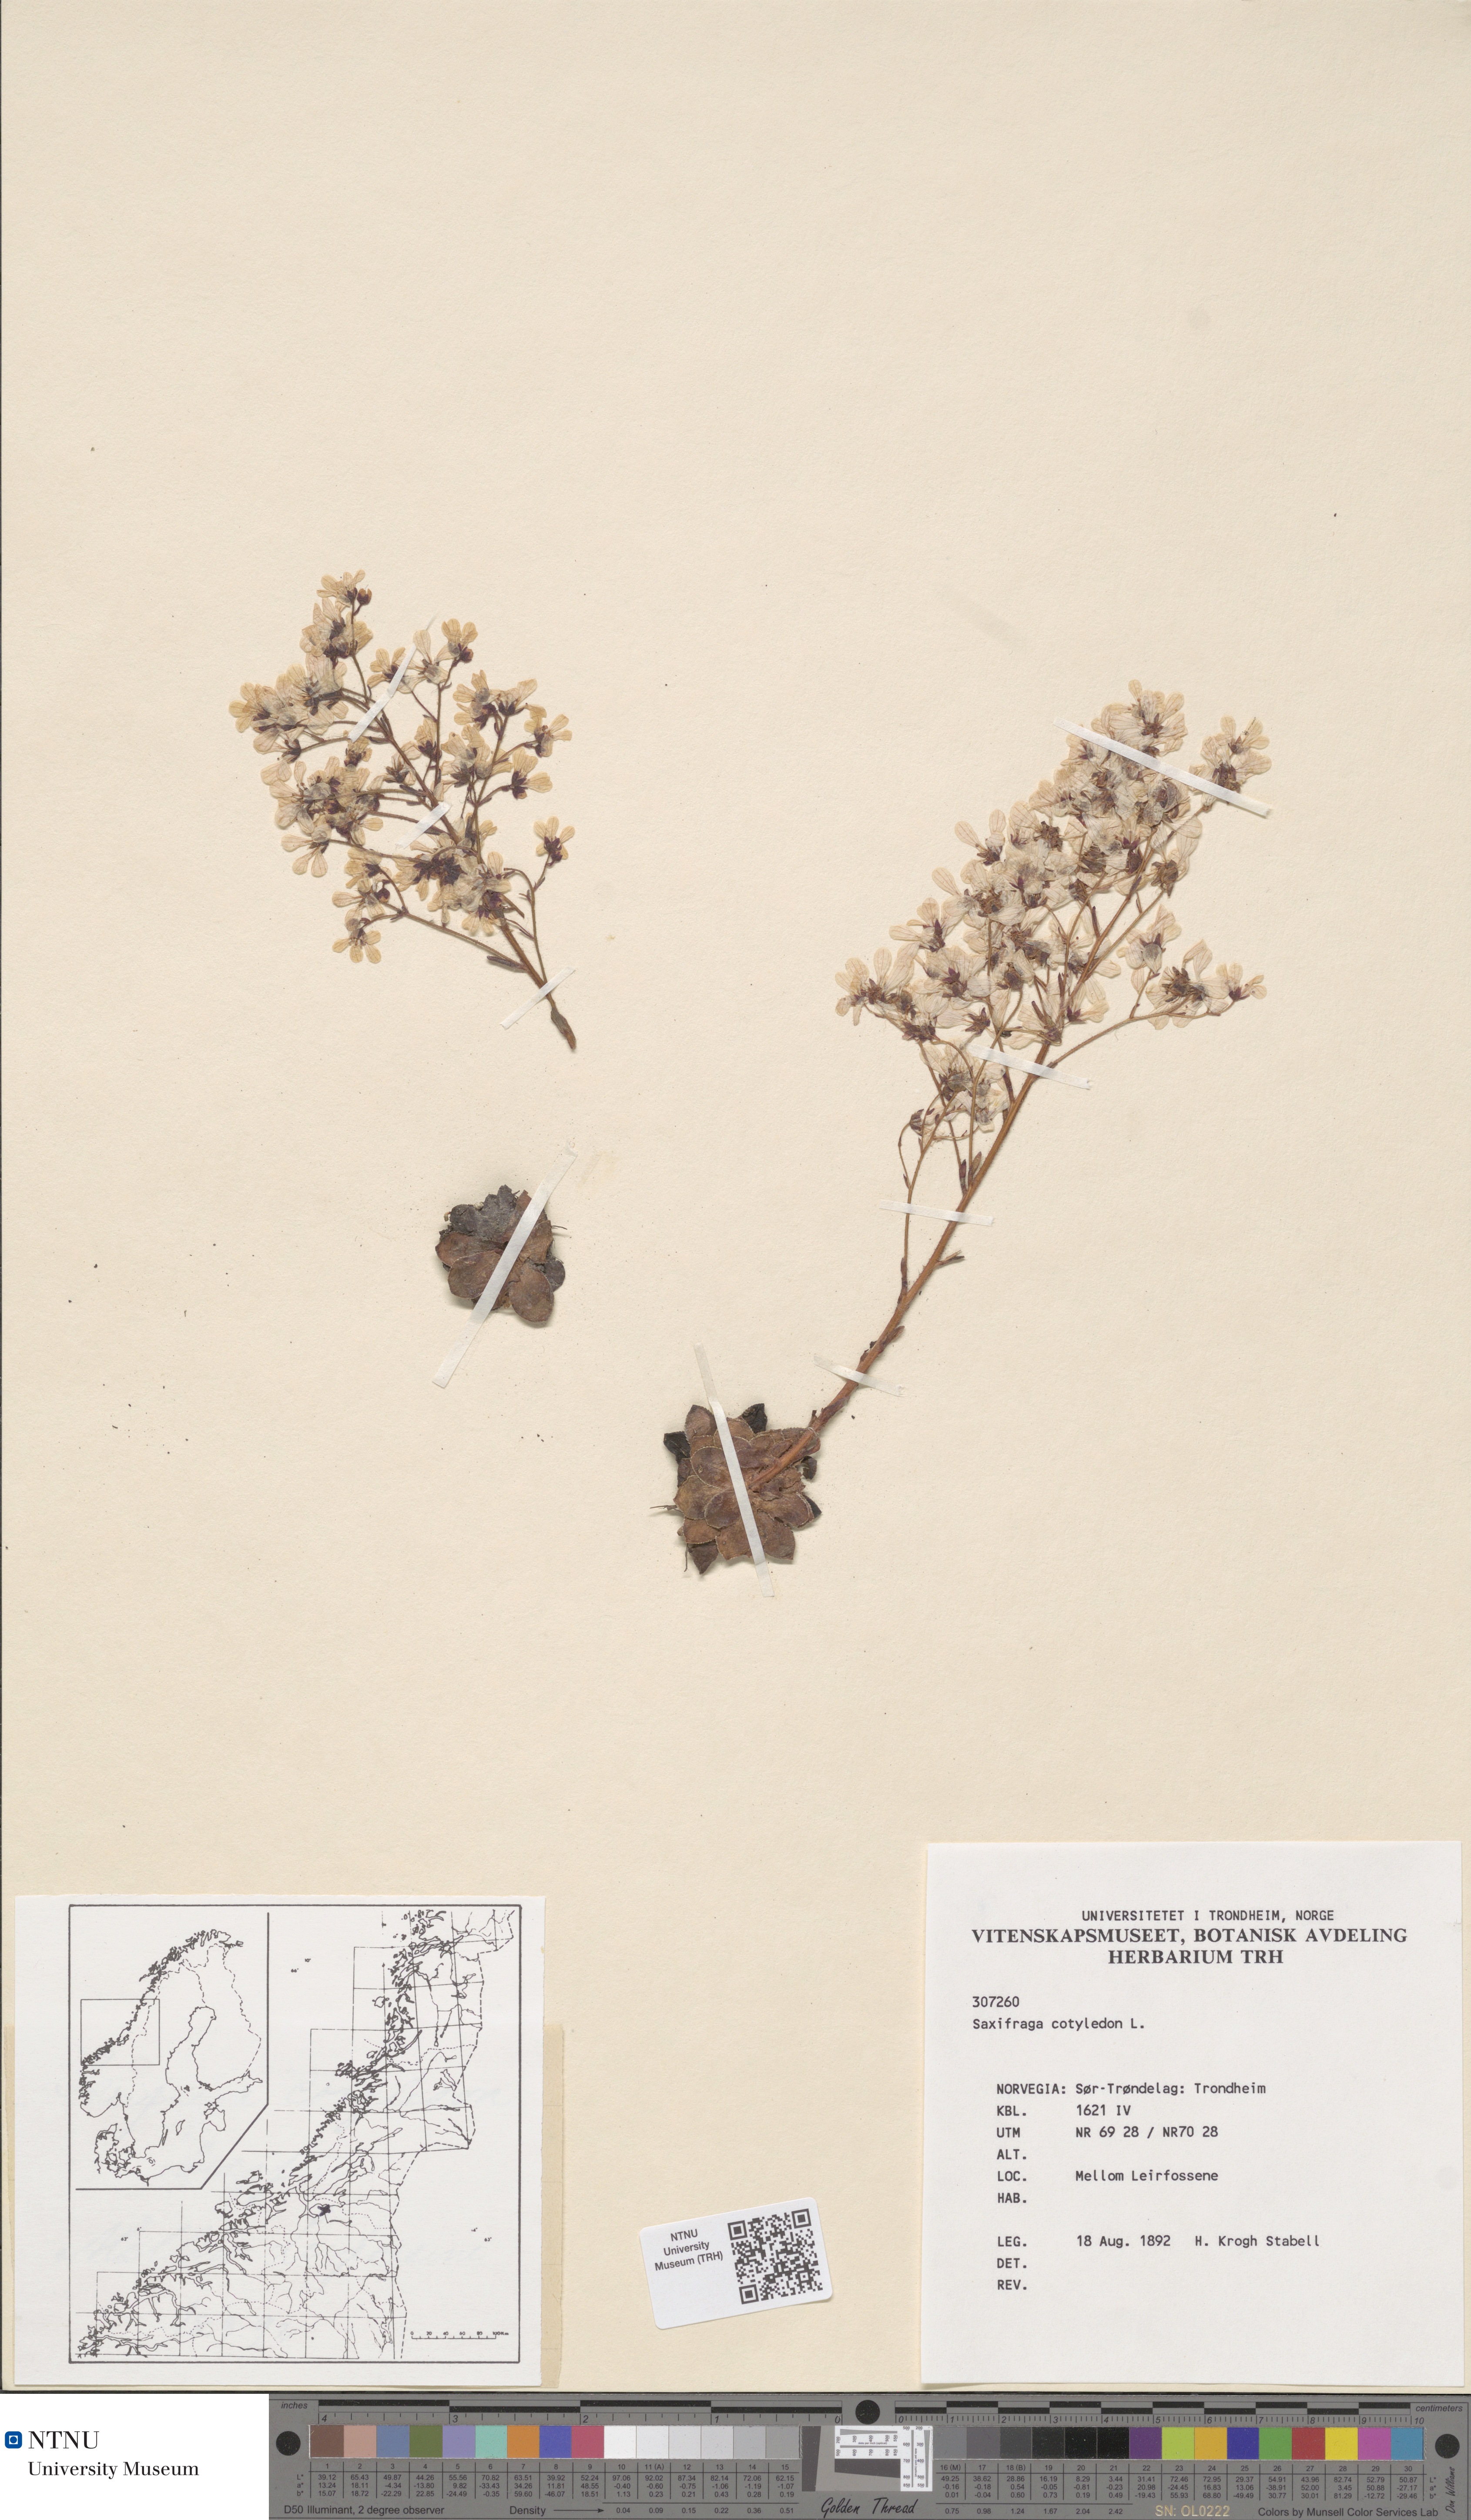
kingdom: Plantae
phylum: Tracheophyta
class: Magnoliopsida
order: Saxifragales
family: Saxifragaceae
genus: Saxifraga
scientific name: Saxifraga cotyledon
